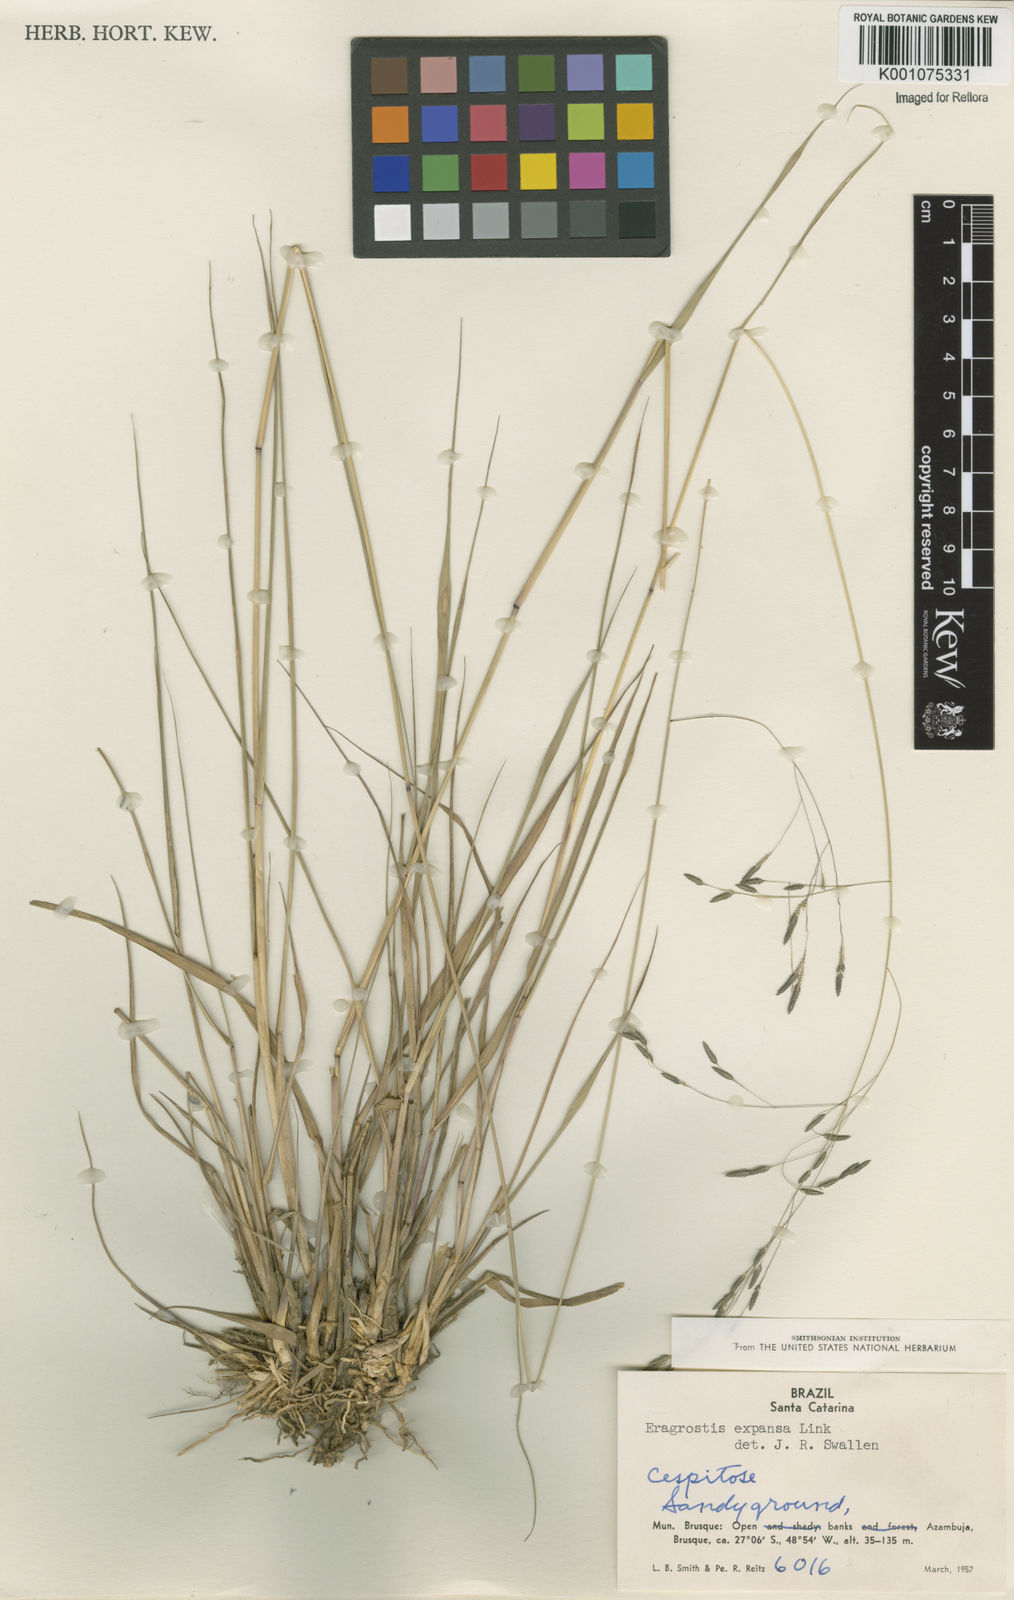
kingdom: Plantae
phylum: Tracheophyta
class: Liliopsida
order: Poales
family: Poaceae
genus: Eragrostis
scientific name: Eragrostis bahiensis
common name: Bahia lovegrass
